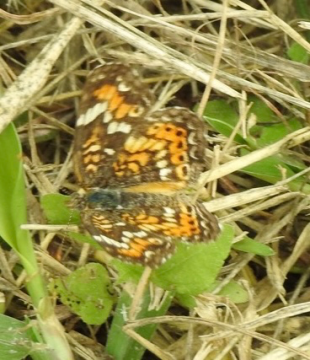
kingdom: Animalia
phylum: Arthropoda
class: Insecta
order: Lepidoptera
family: Nymphalidae
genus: Phyciodes
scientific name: Phyciodes phaon
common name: Phaon Crescent
